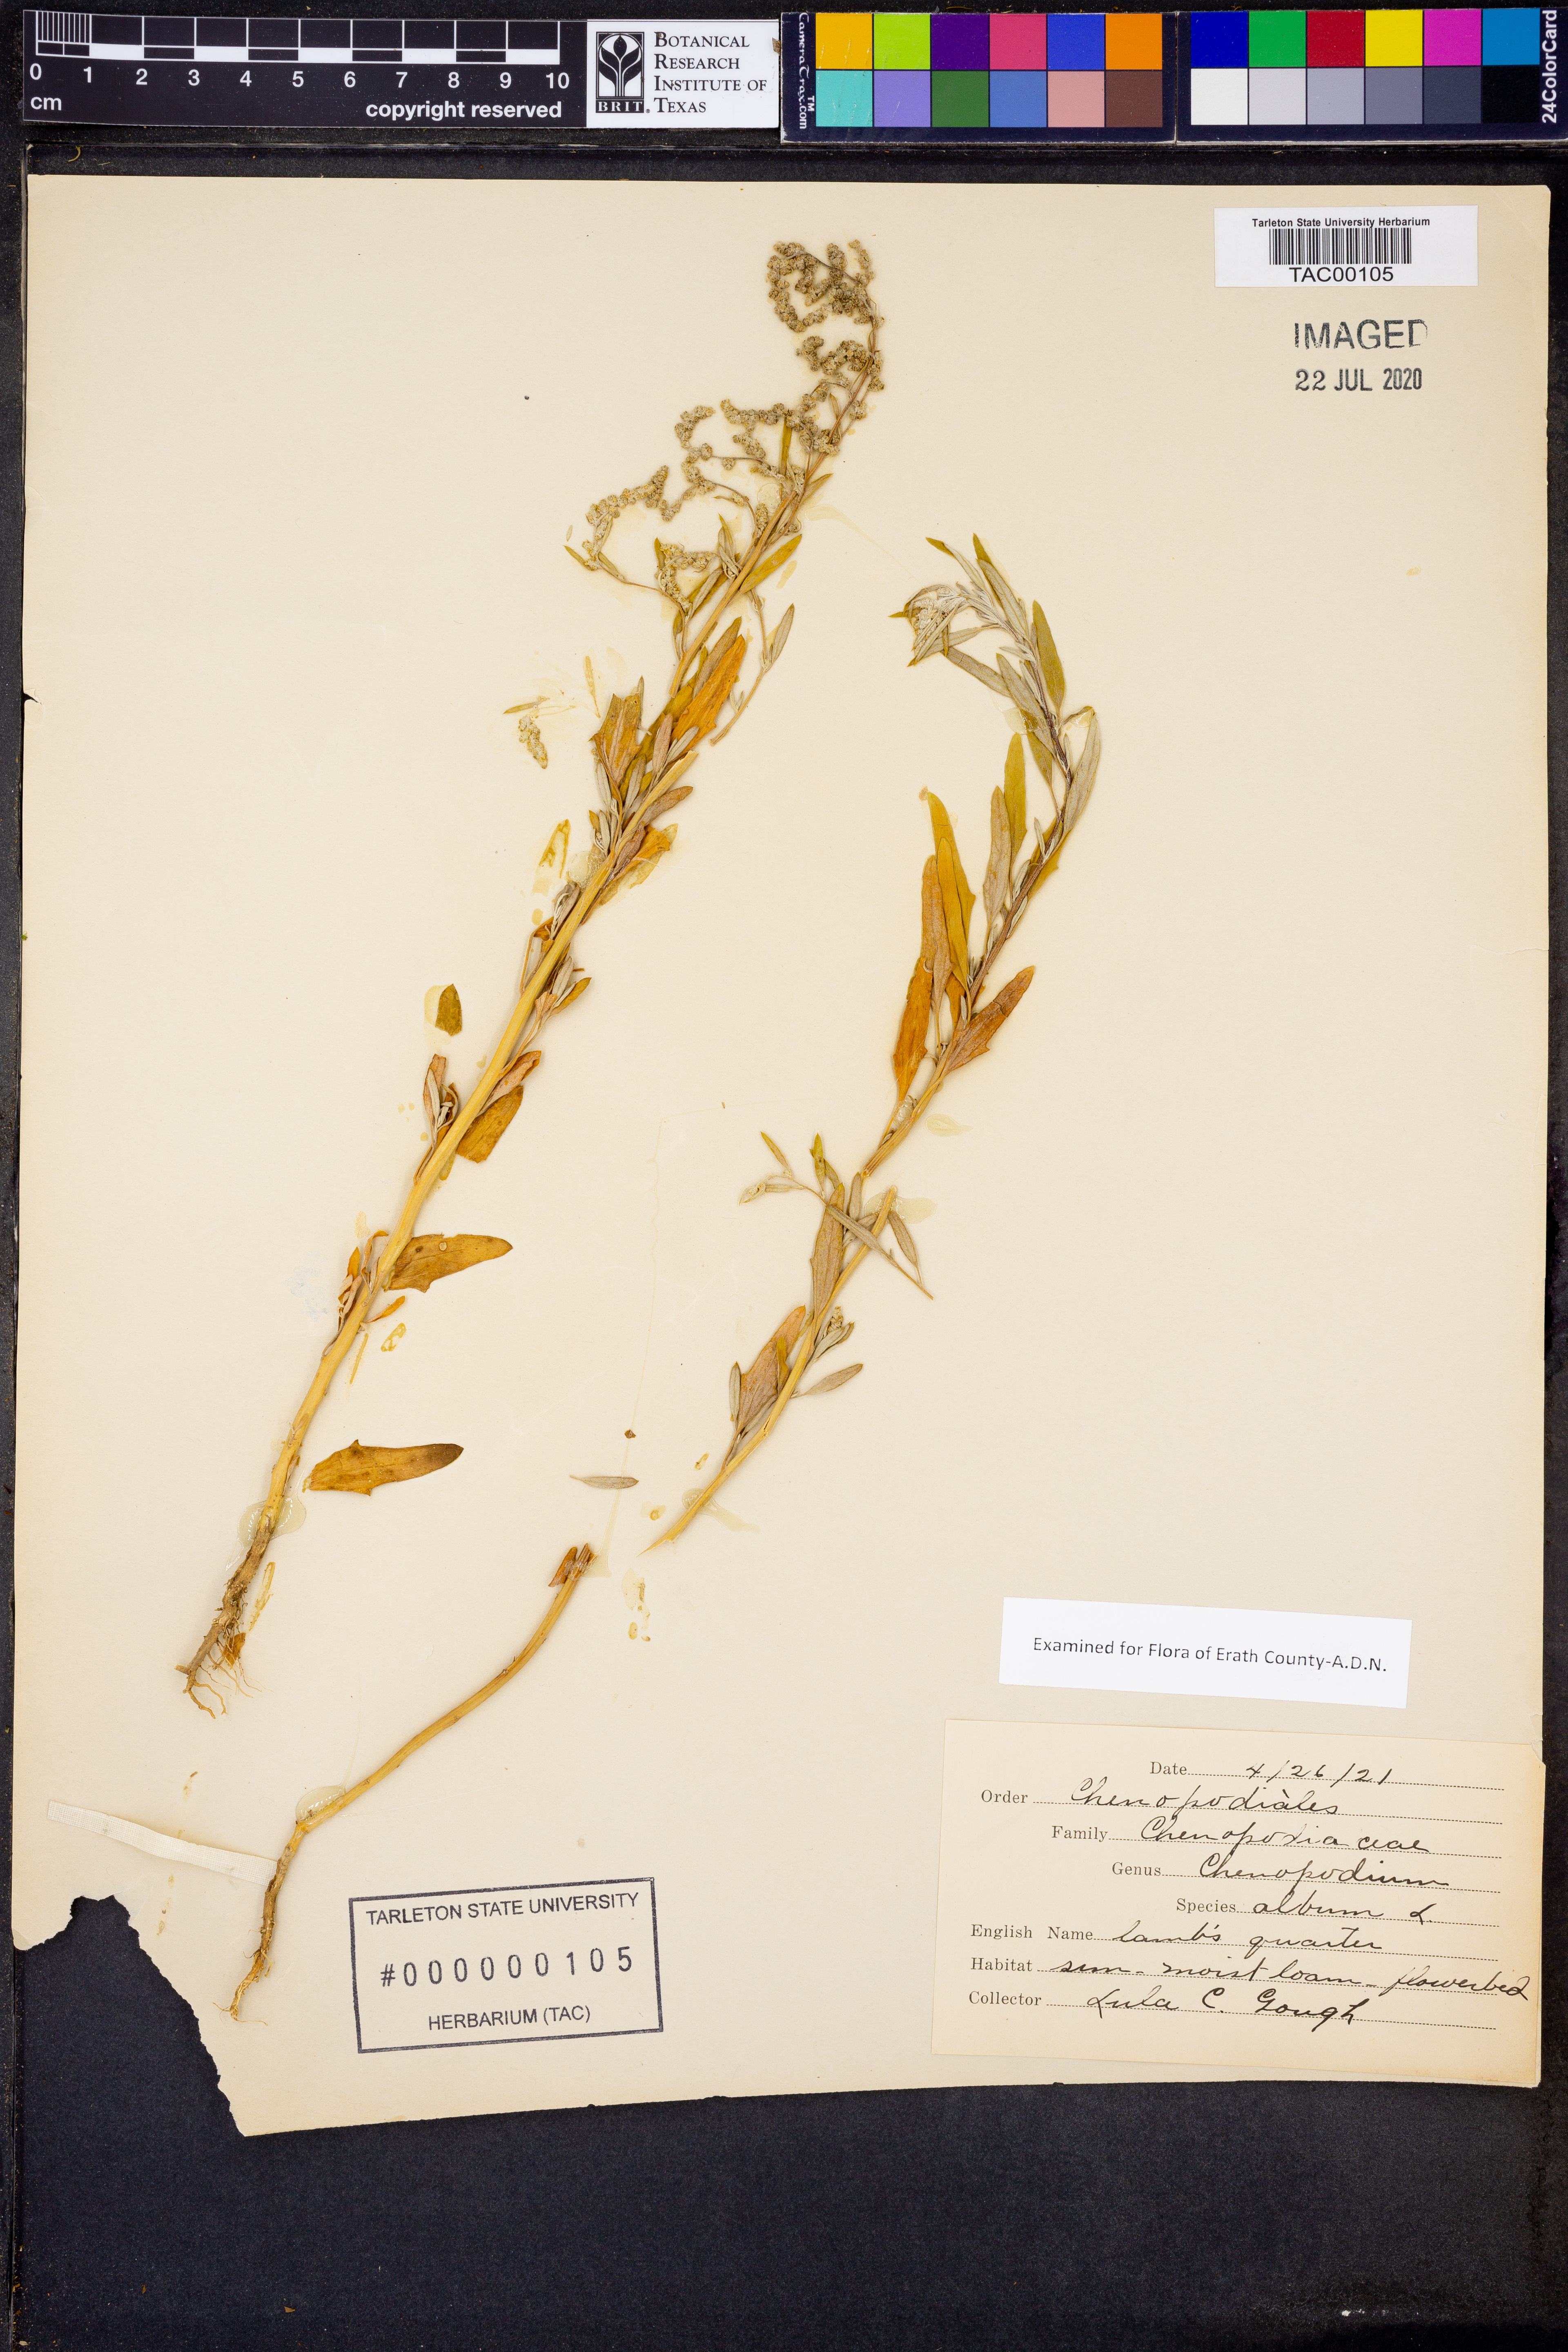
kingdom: Plantae
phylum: Tracheophyta
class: Magnoliopsida
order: Caryophyllales
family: Amaranthaceae
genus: Chenopodium
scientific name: Chenopodium album
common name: Fat-hen
